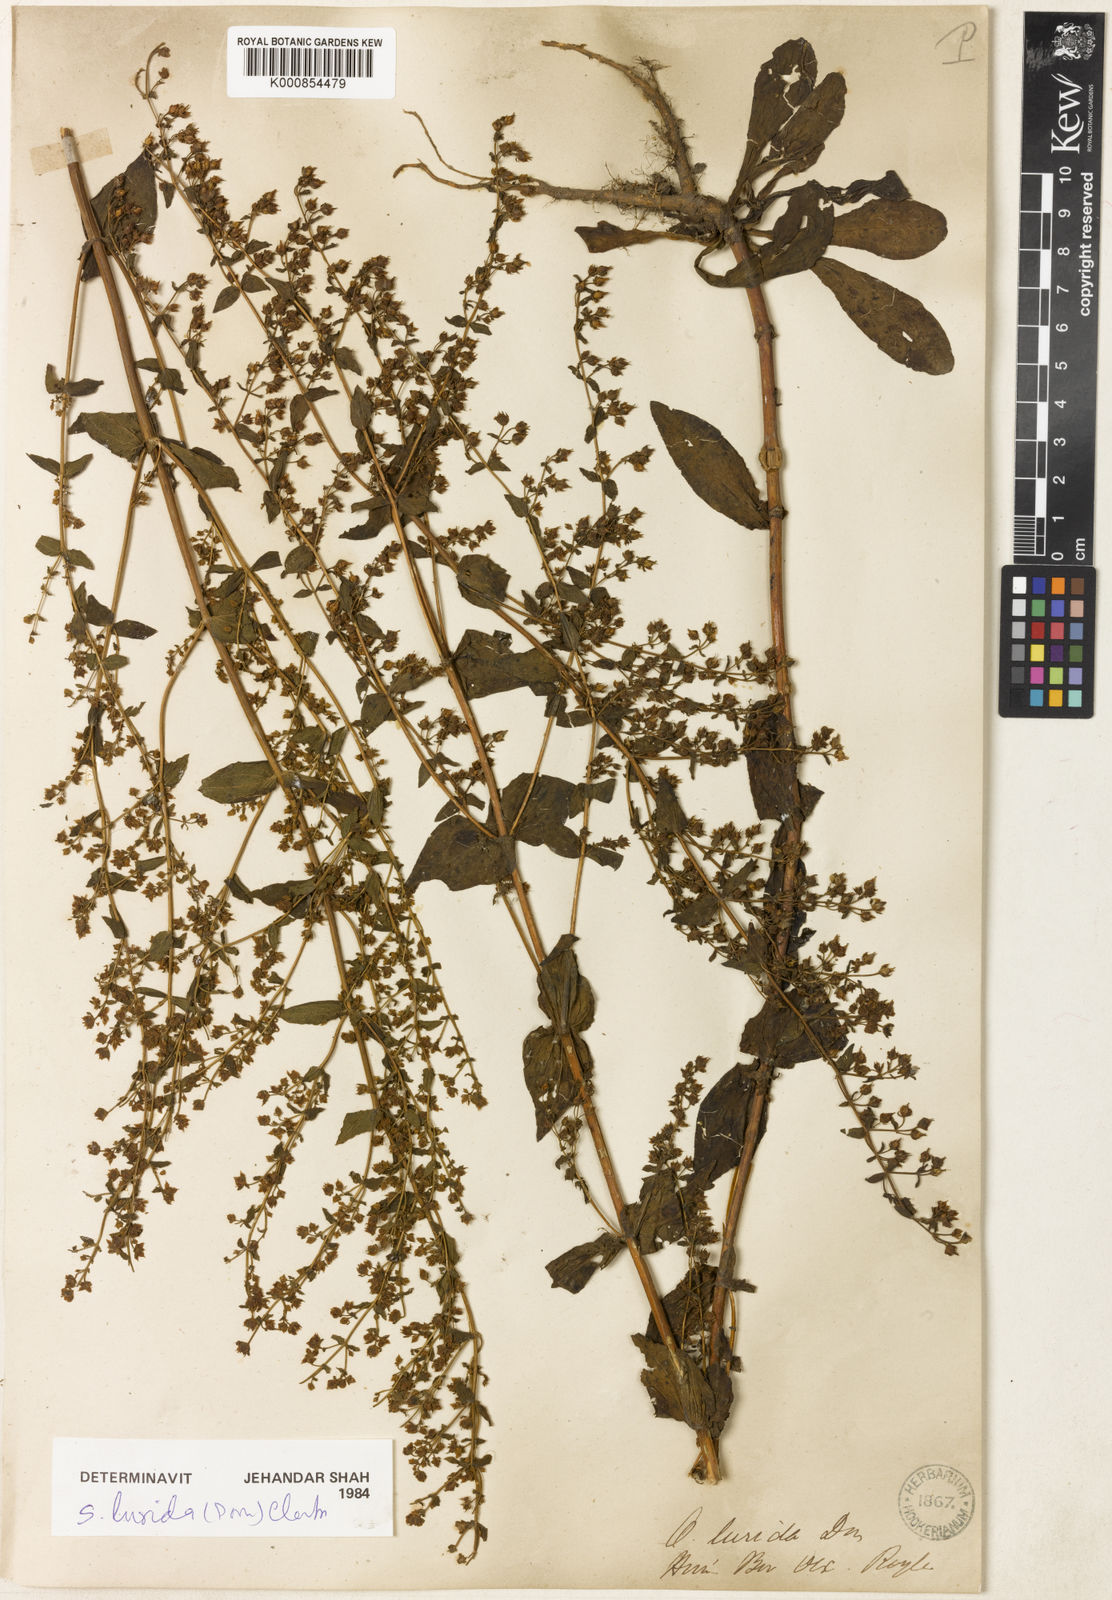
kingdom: Plantae
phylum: Tracheophyta
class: Magnoliopsida
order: Gentianales
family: Gentianaceae
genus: Swertia
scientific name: Swertia lurida
